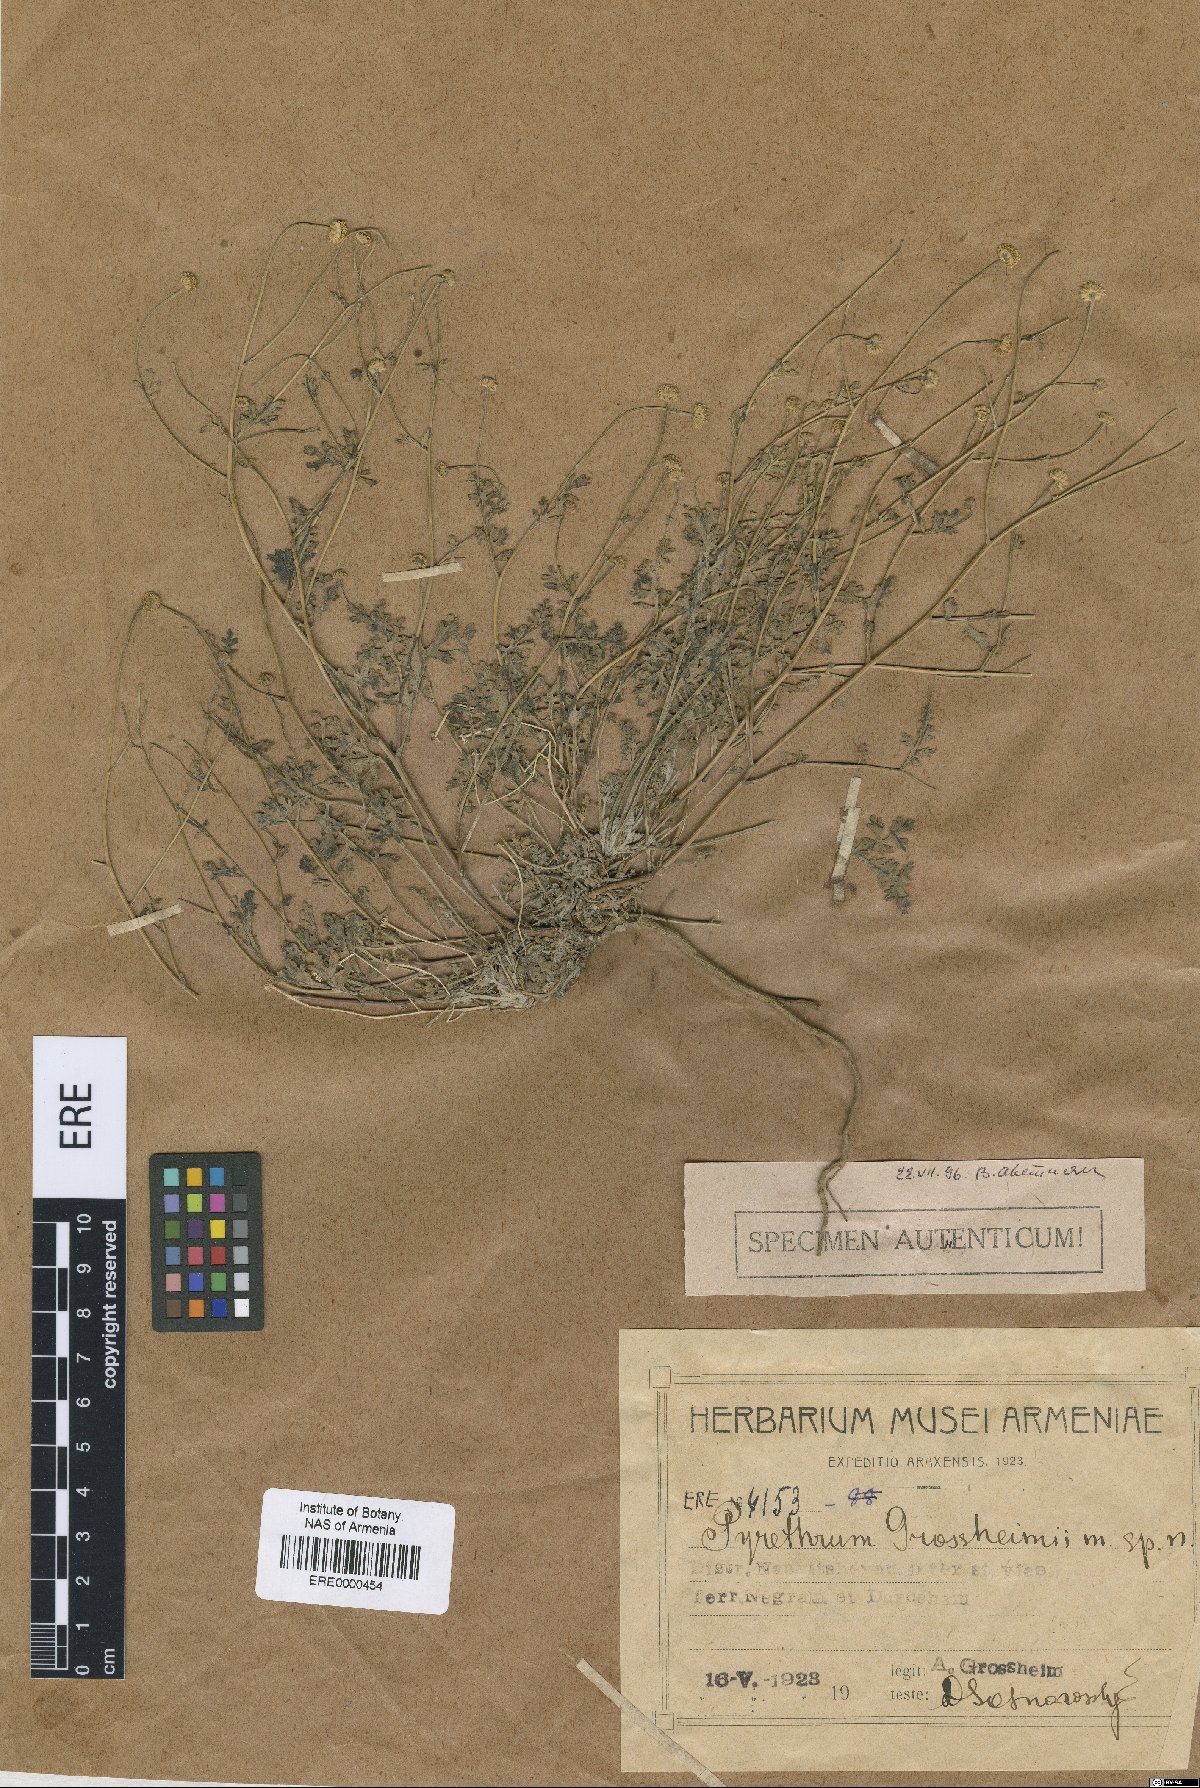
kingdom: Plantae
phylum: Tracheophyta
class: Magnoliopsida
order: Asterales
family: Asteraceae
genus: Tanacetum
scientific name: Tanacetum parthenium
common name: Feverfew
